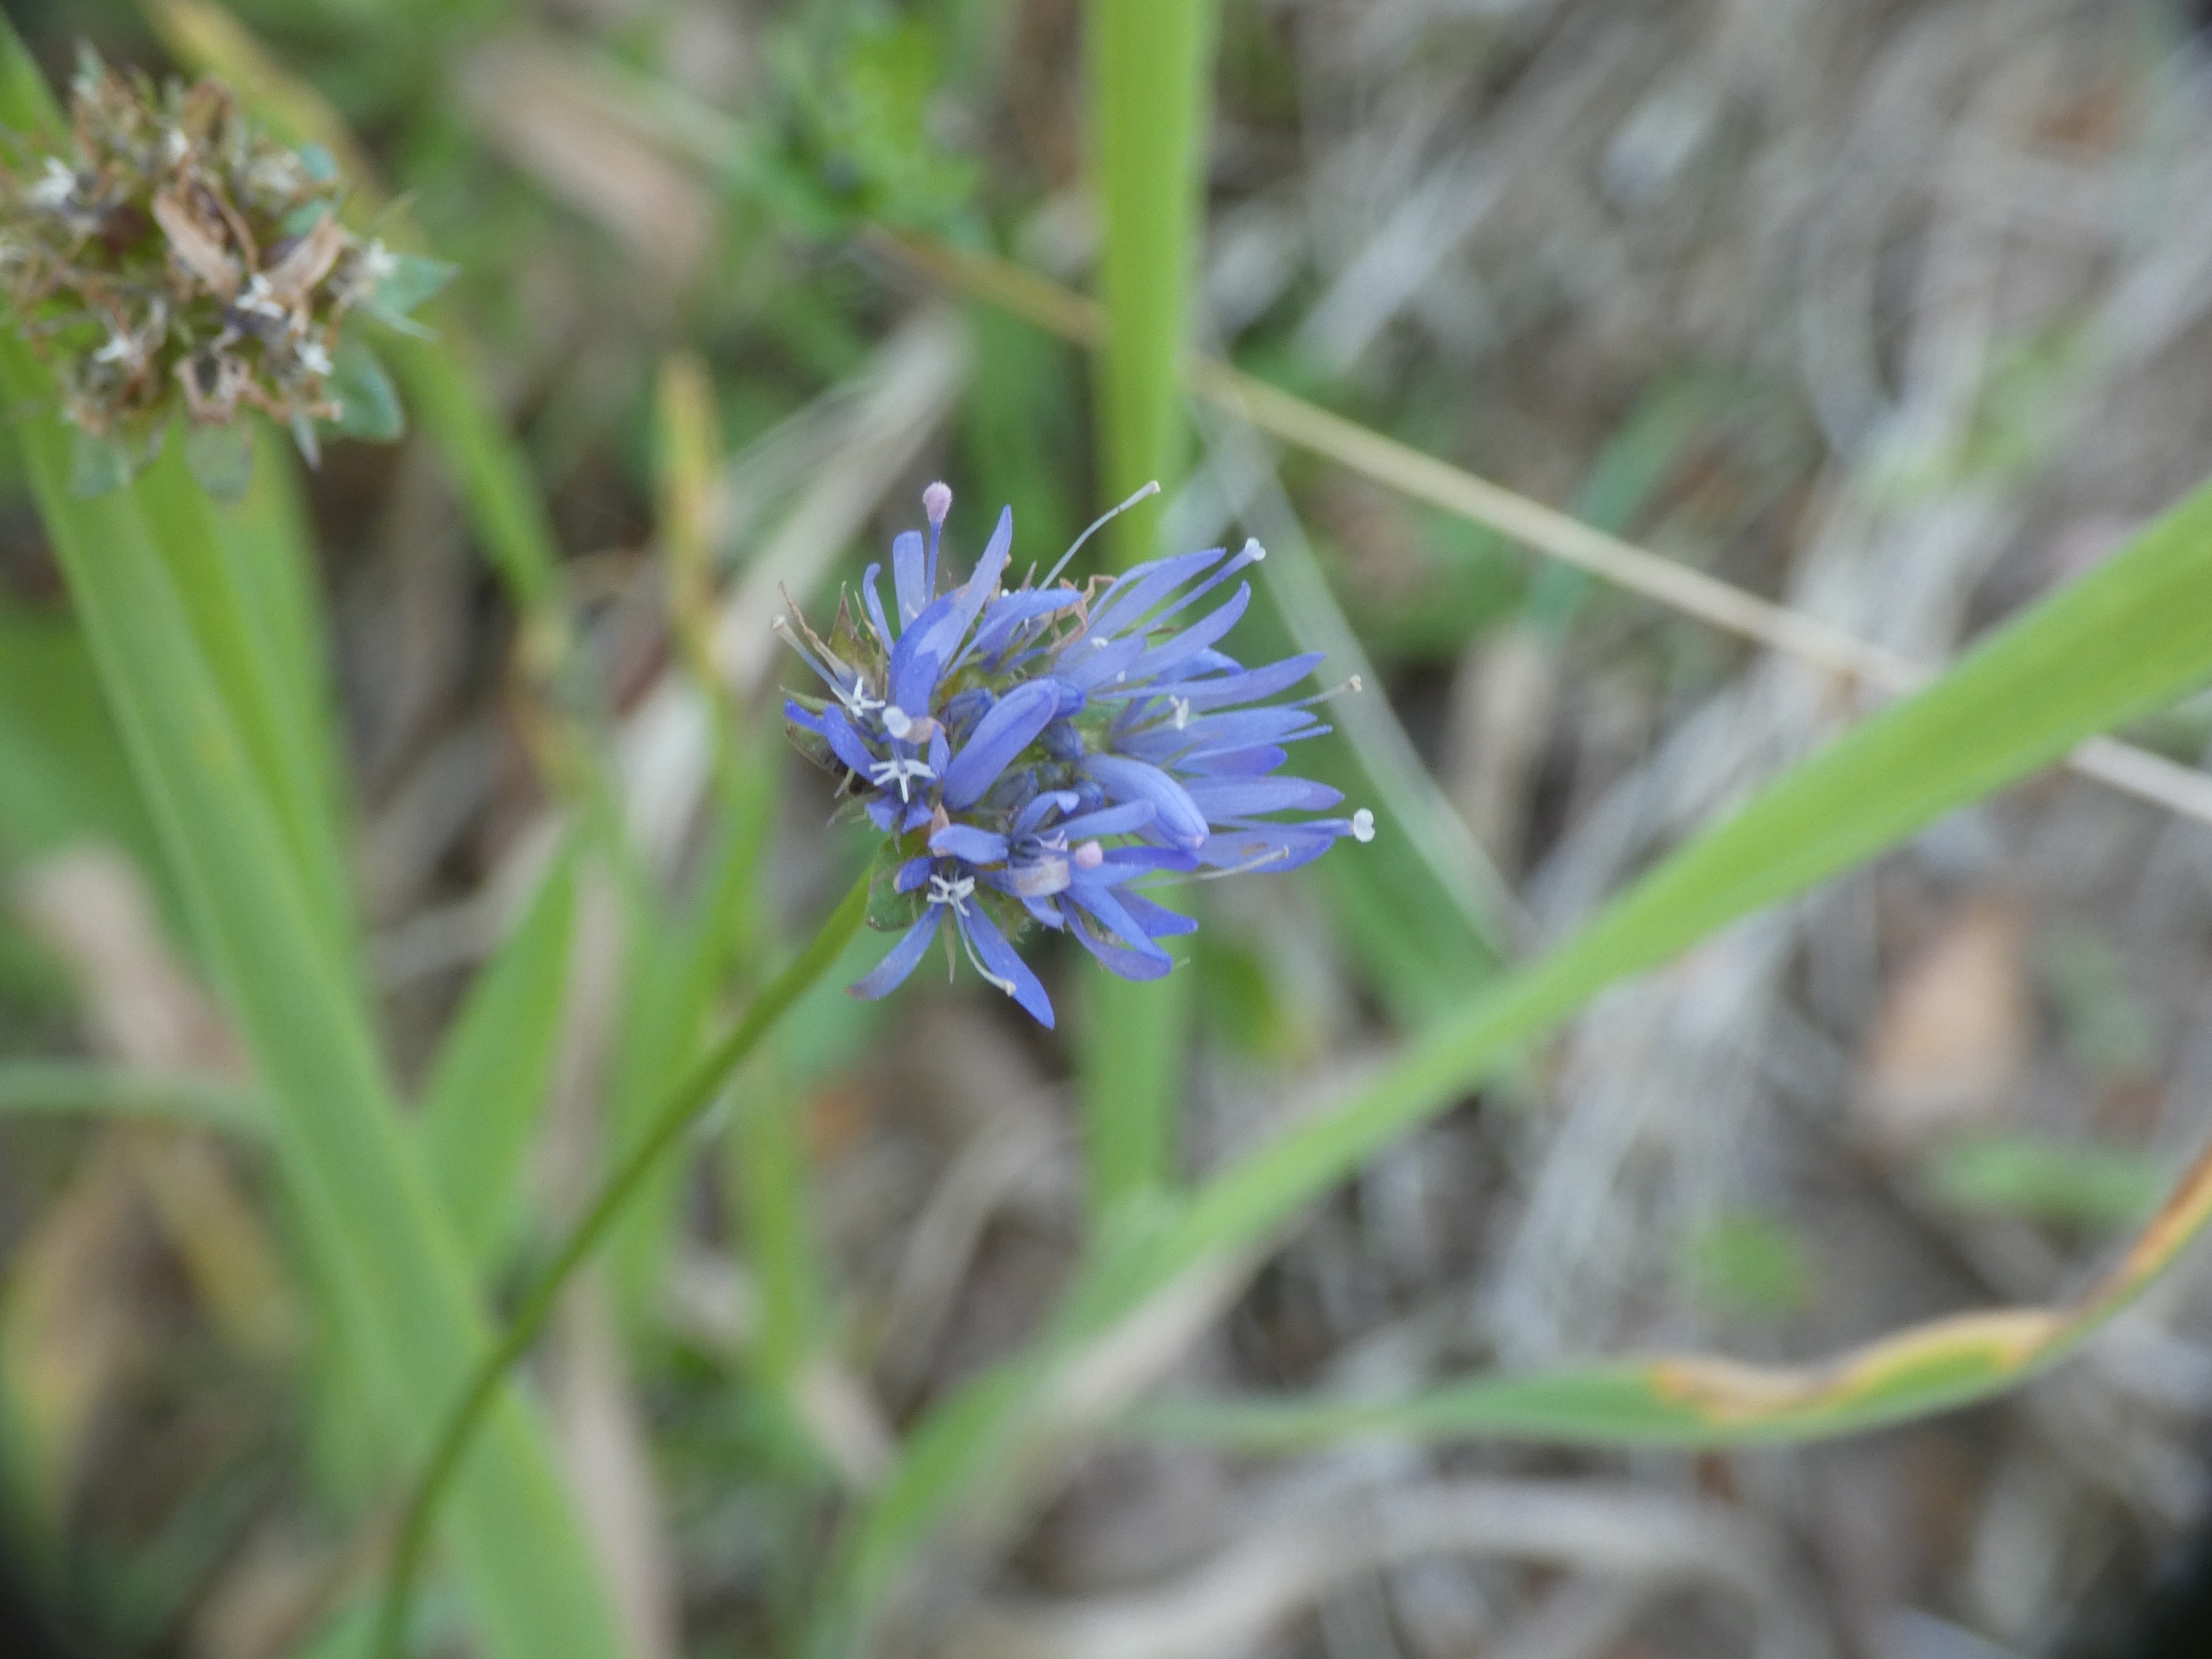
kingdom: Plantae
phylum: Tracheophyta
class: Magnoliopsida
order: Asterales
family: Campanulaceae
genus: Jasione
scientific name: Jasione montana
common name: Blåmunke
